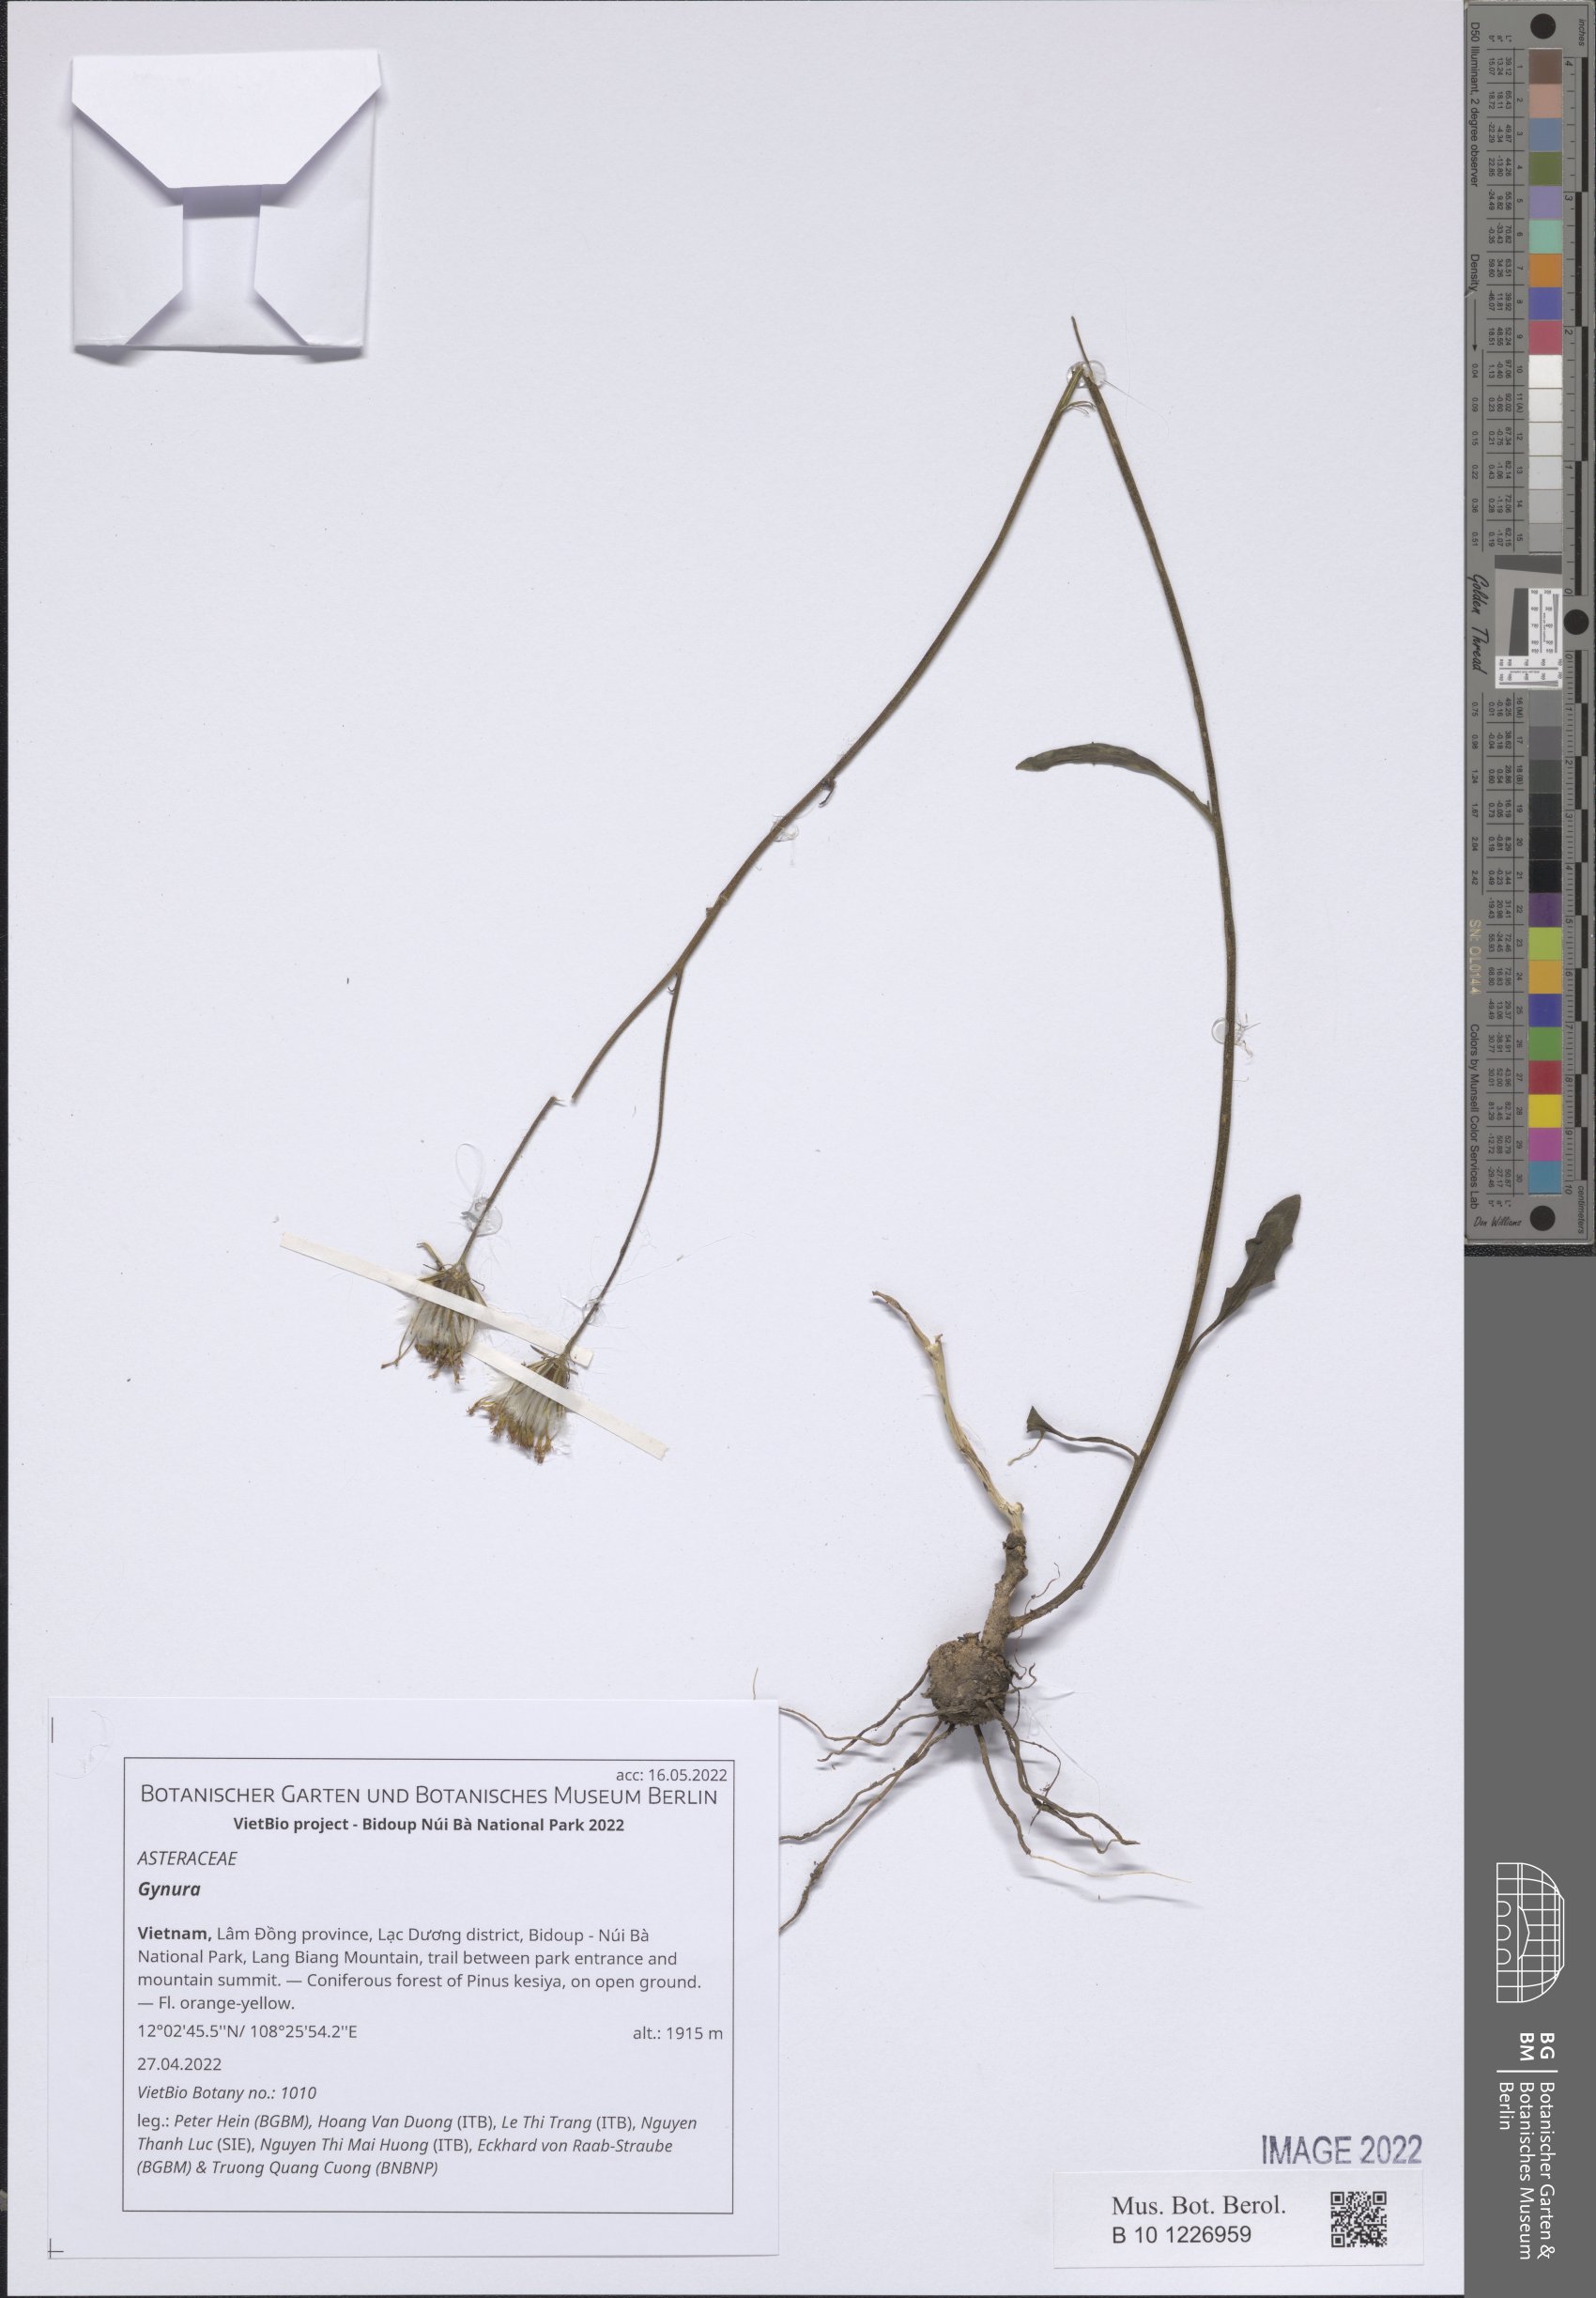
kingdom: Plantae
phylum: Tracheophyta
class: Magnoliopsida
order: Asterales
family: Asteraceae
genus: Gynura
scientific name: Gynura
